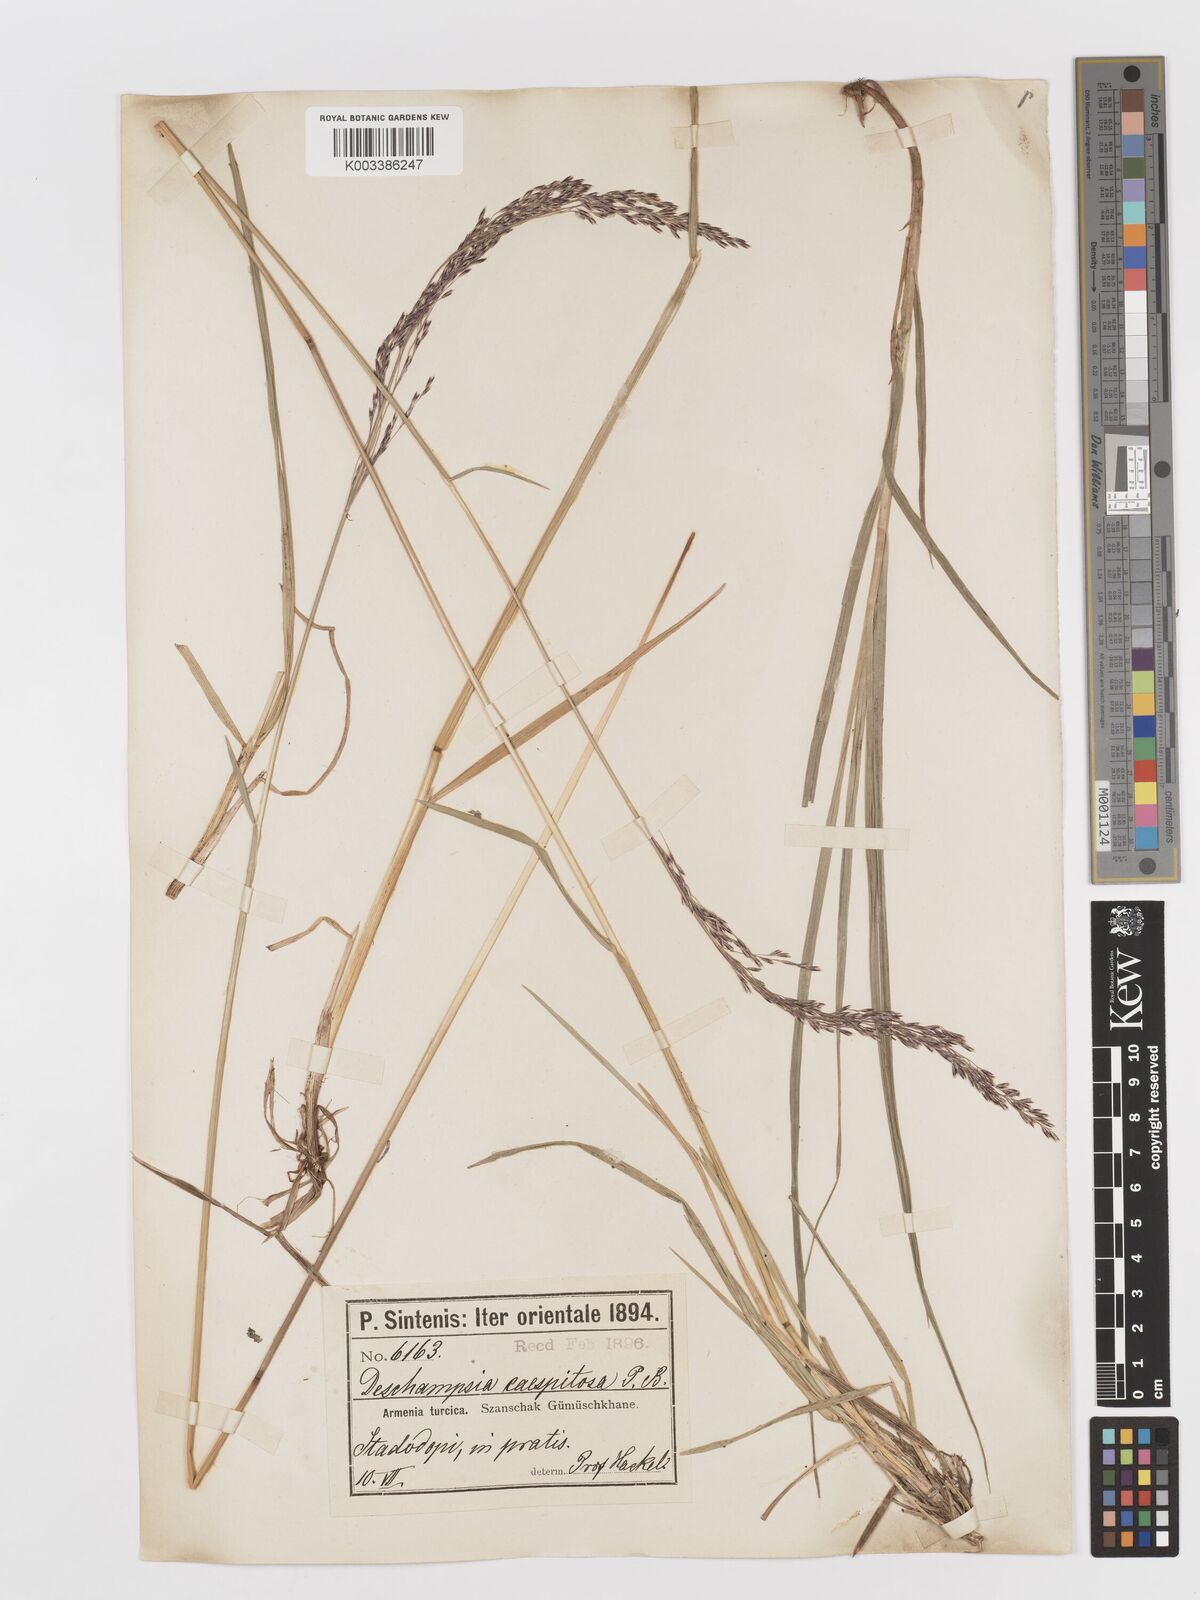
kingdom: Plantae
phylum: Tracheophyta
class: Liliopsida
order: Poales
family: Poaceae
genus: Deschampsia
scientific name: Deschampsia cespitosa
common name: Tufted hair-grass
